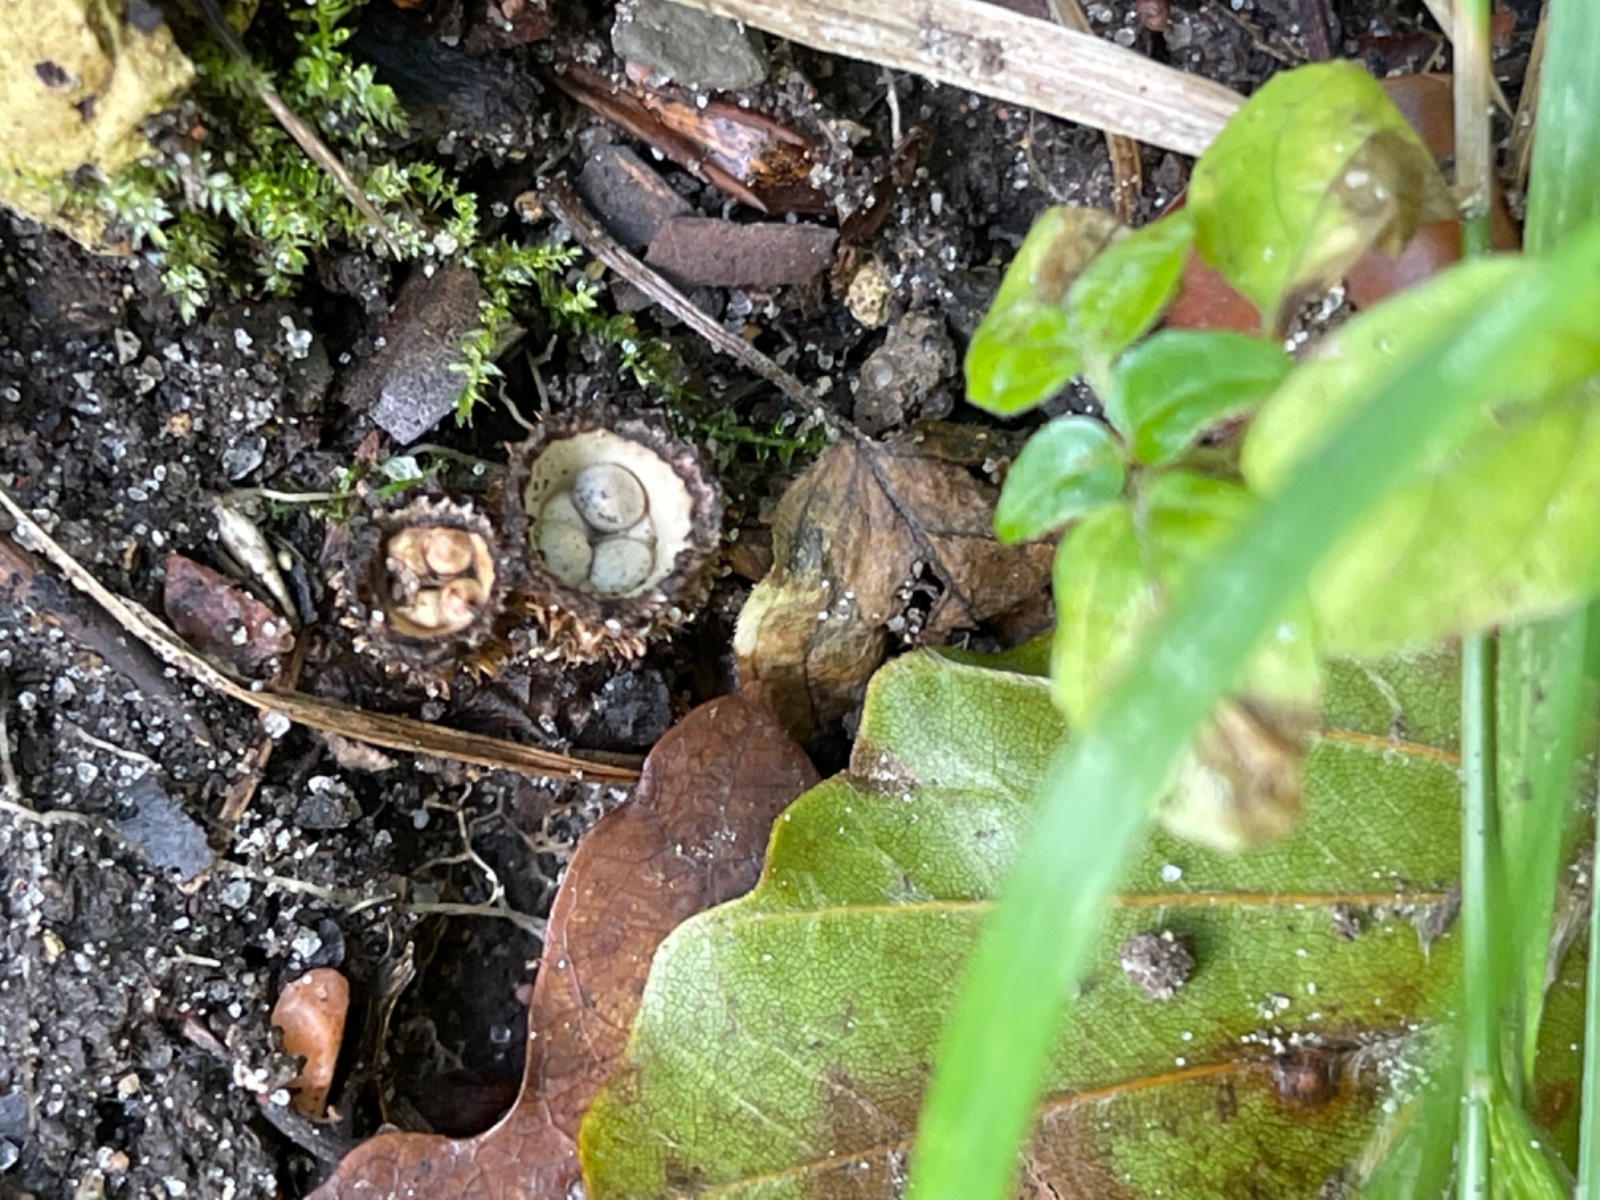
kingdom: Fungi
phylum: Basidiomycota
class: Agaricomycetes
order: Agaricales
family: Agaricaceae
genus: Cyathus
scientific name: Cyathus striatus
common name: stribet redesvamp
